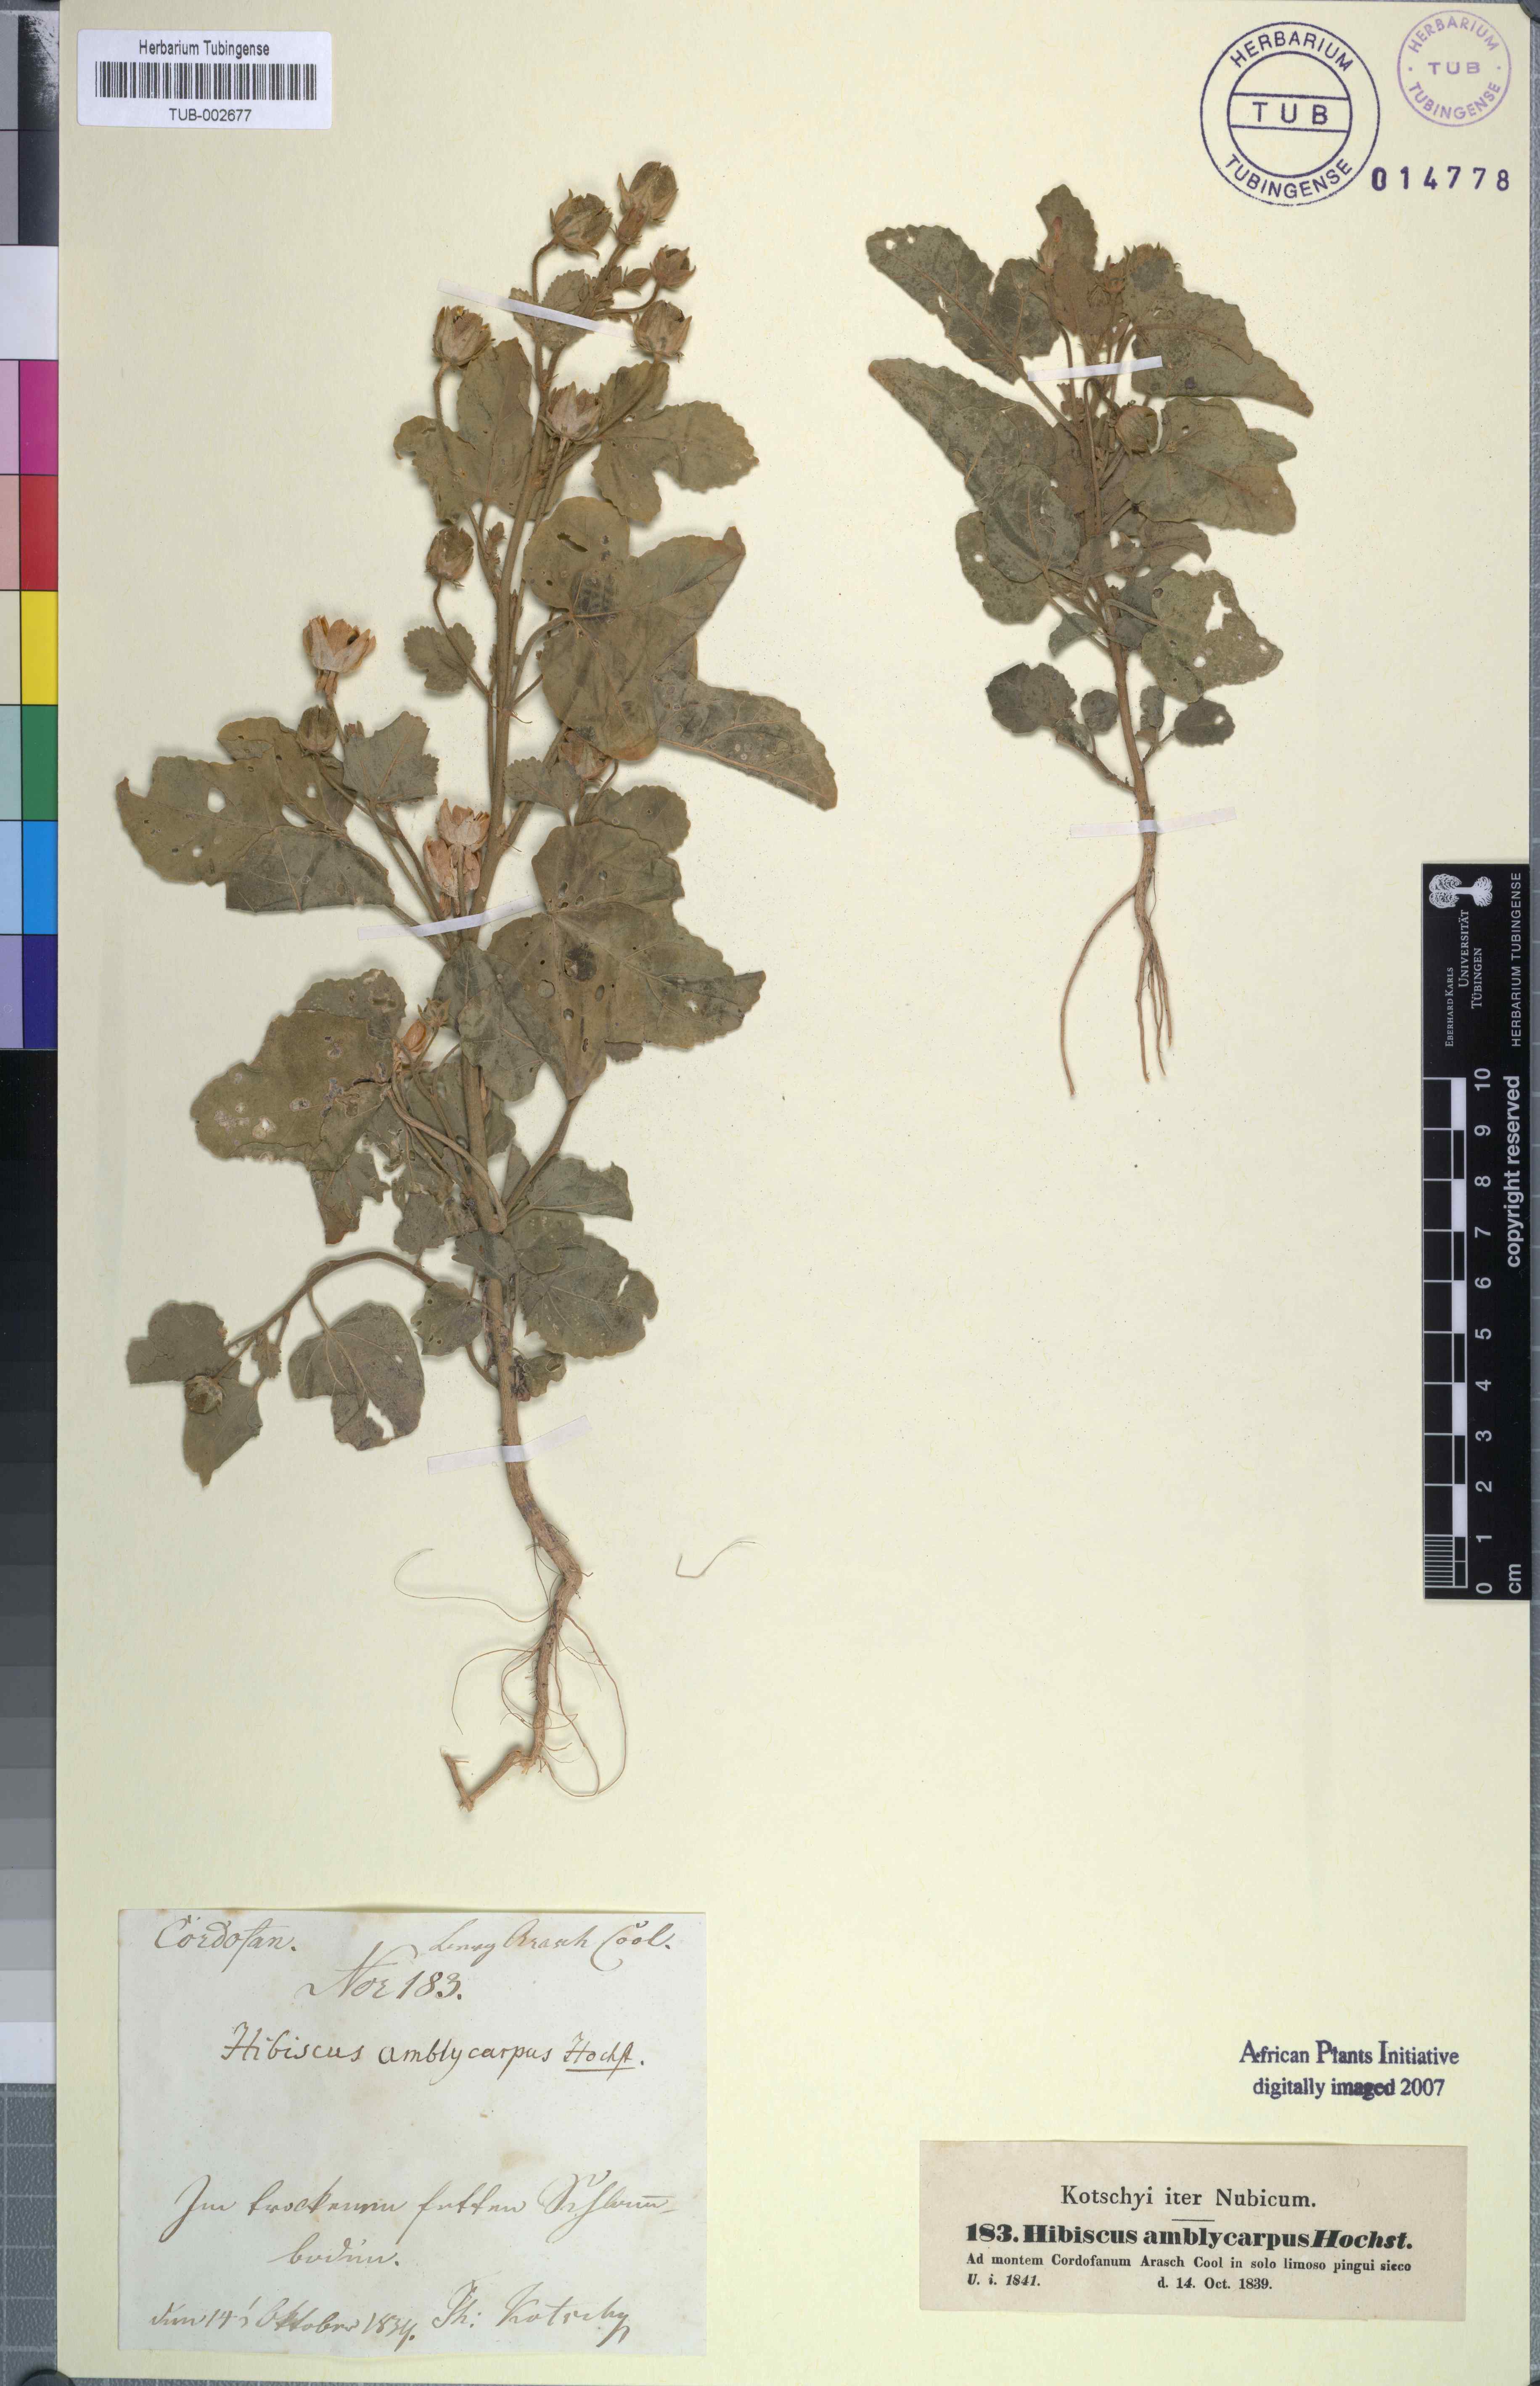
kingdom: Plantae
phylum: Tracheophyta
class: Magnoliopsida
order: Malvales
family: Malvaceae
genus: Hibiscus
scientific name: Hibiscus obtusilobus
